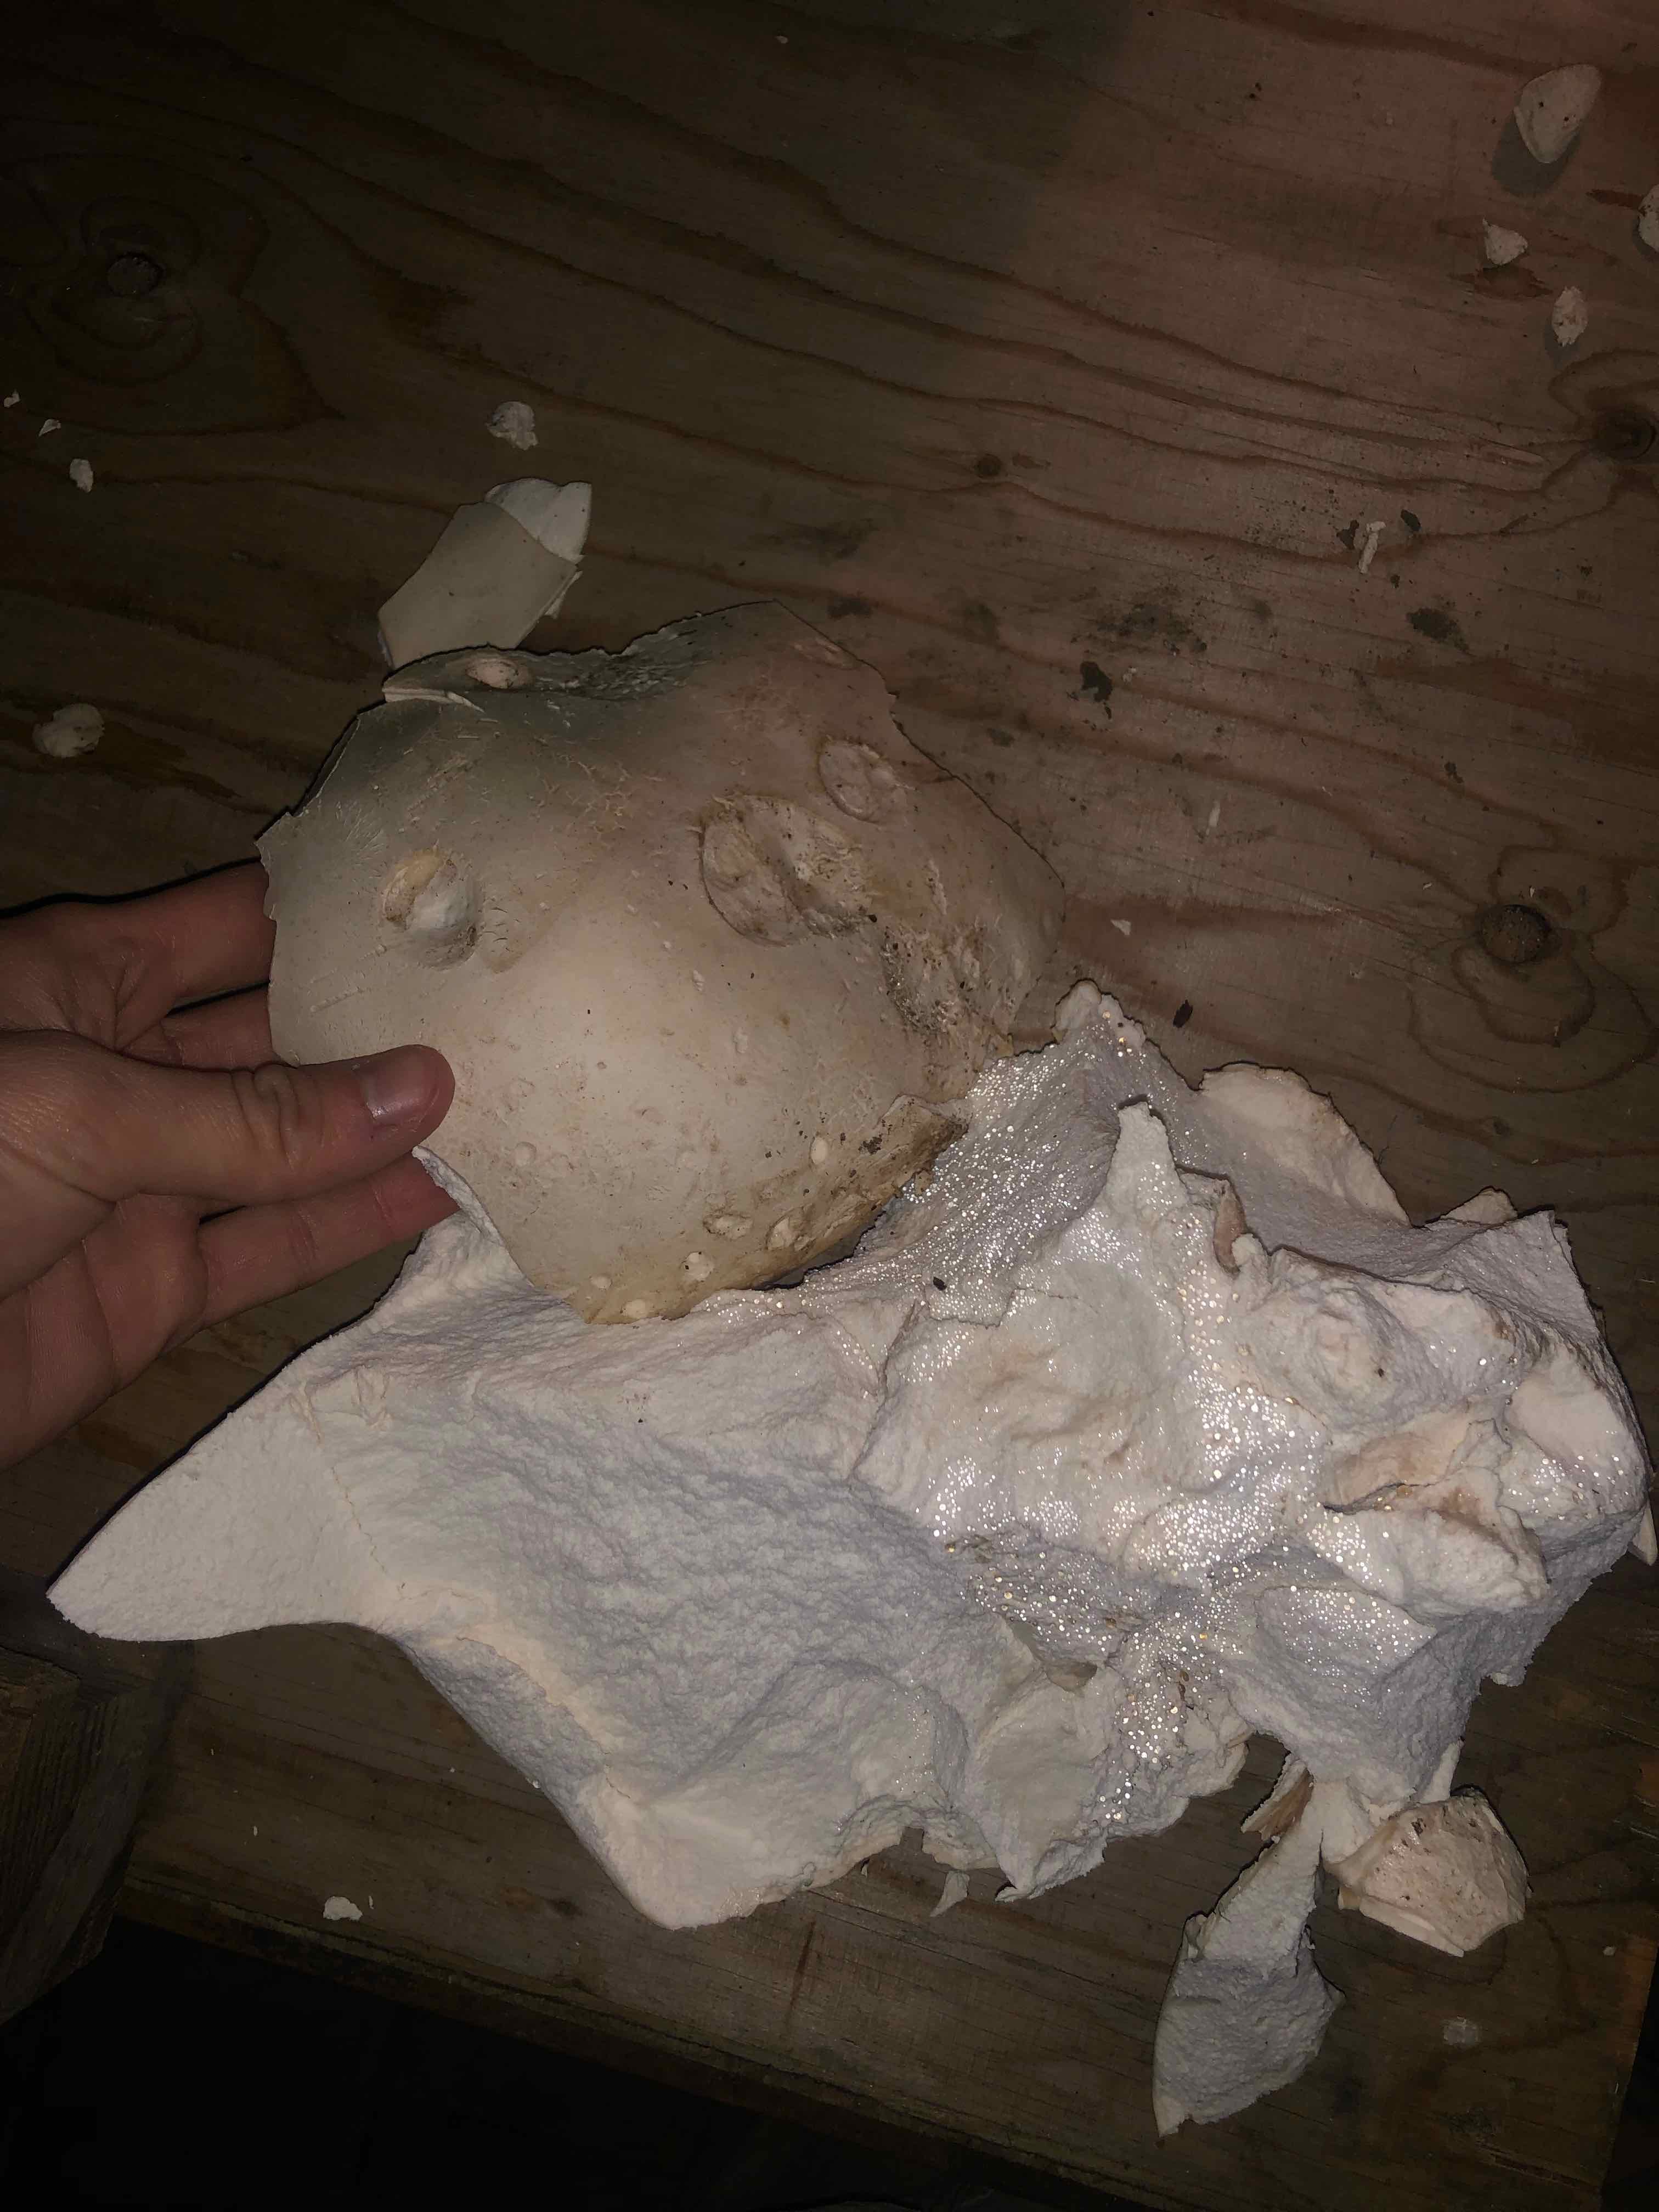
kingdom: Fungi
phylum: Basidiomycota
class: Agaricomycetes
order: Agaricales
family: Lycoperdaceae
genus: Calvatia
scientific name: Calvatia gigantea
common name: kæmpestøvbold
